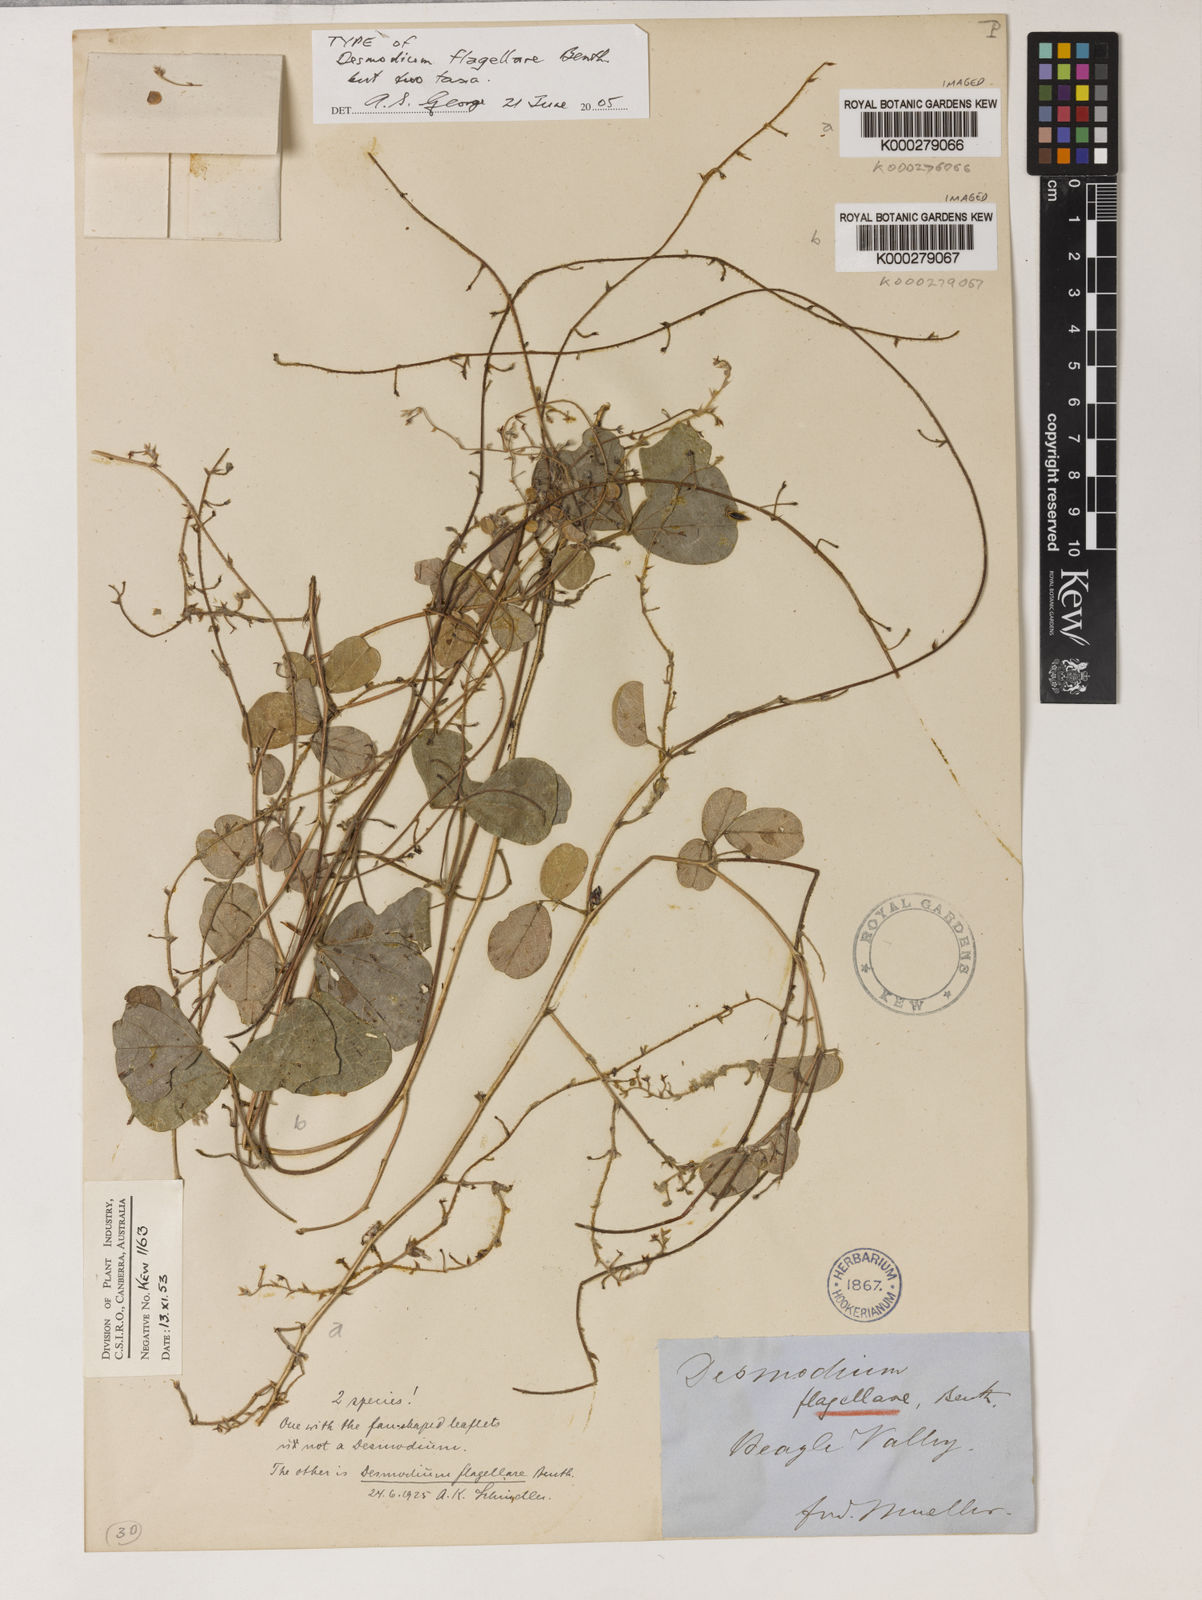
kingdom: Plantae
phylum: Tracheophyta
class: Magnoliopsida
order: Fabales
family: Fabaceae
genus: Grona
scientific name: Grona flagellaris
